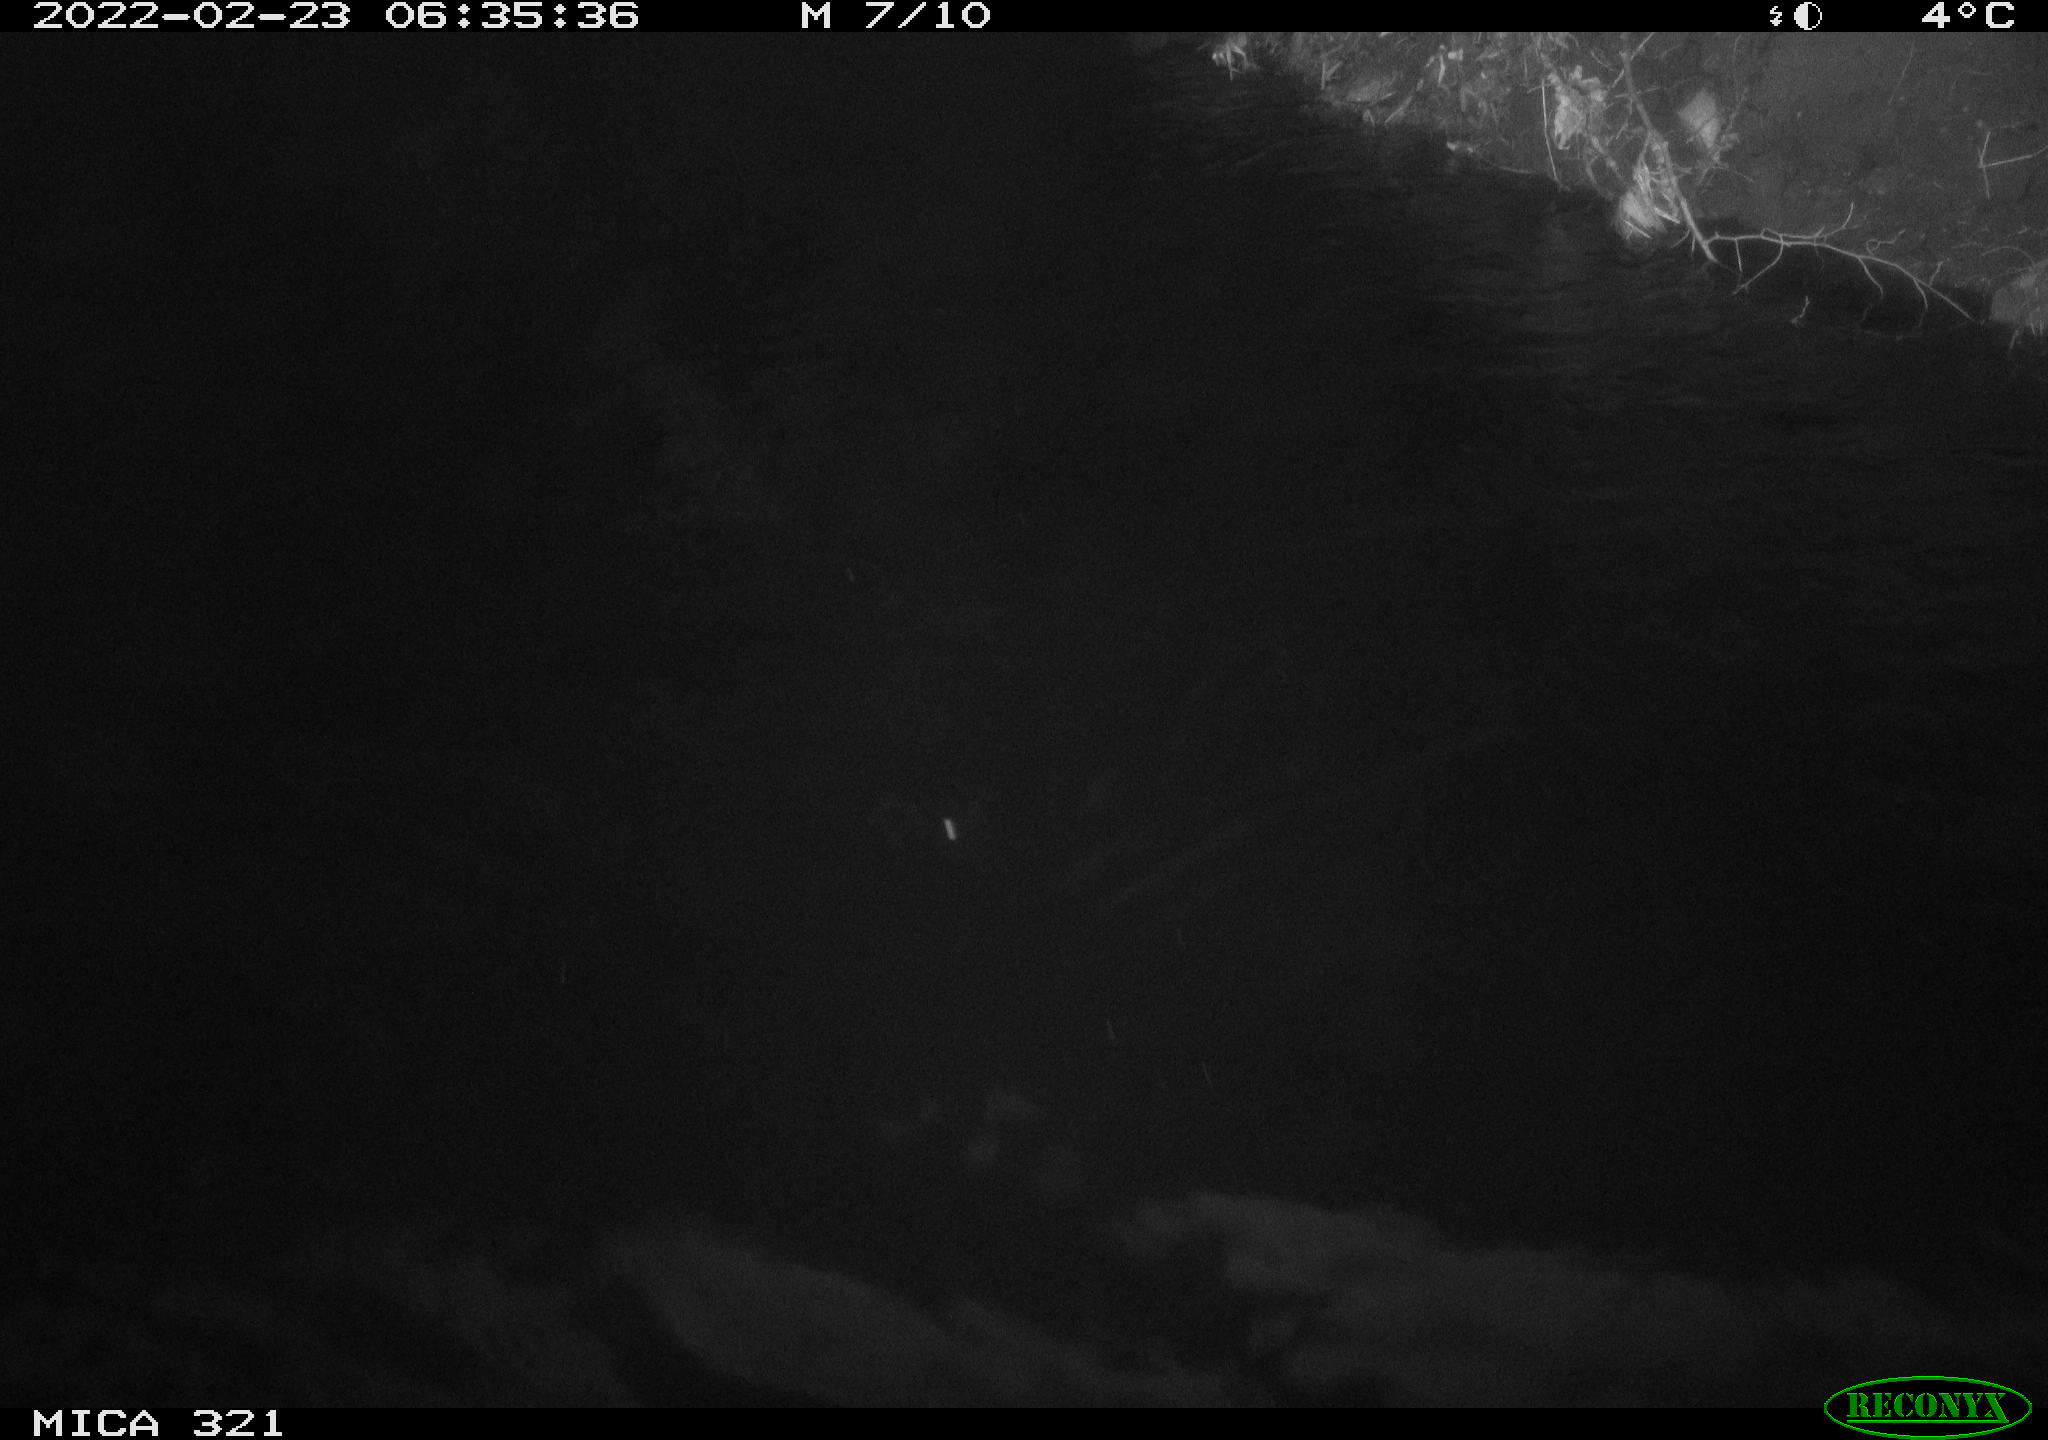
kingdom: Animalia
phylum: Chordata
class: Aves
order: Anseriformes
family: Anatidae
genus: Anas
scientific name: Anas platyrhynchos
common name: Mallard
